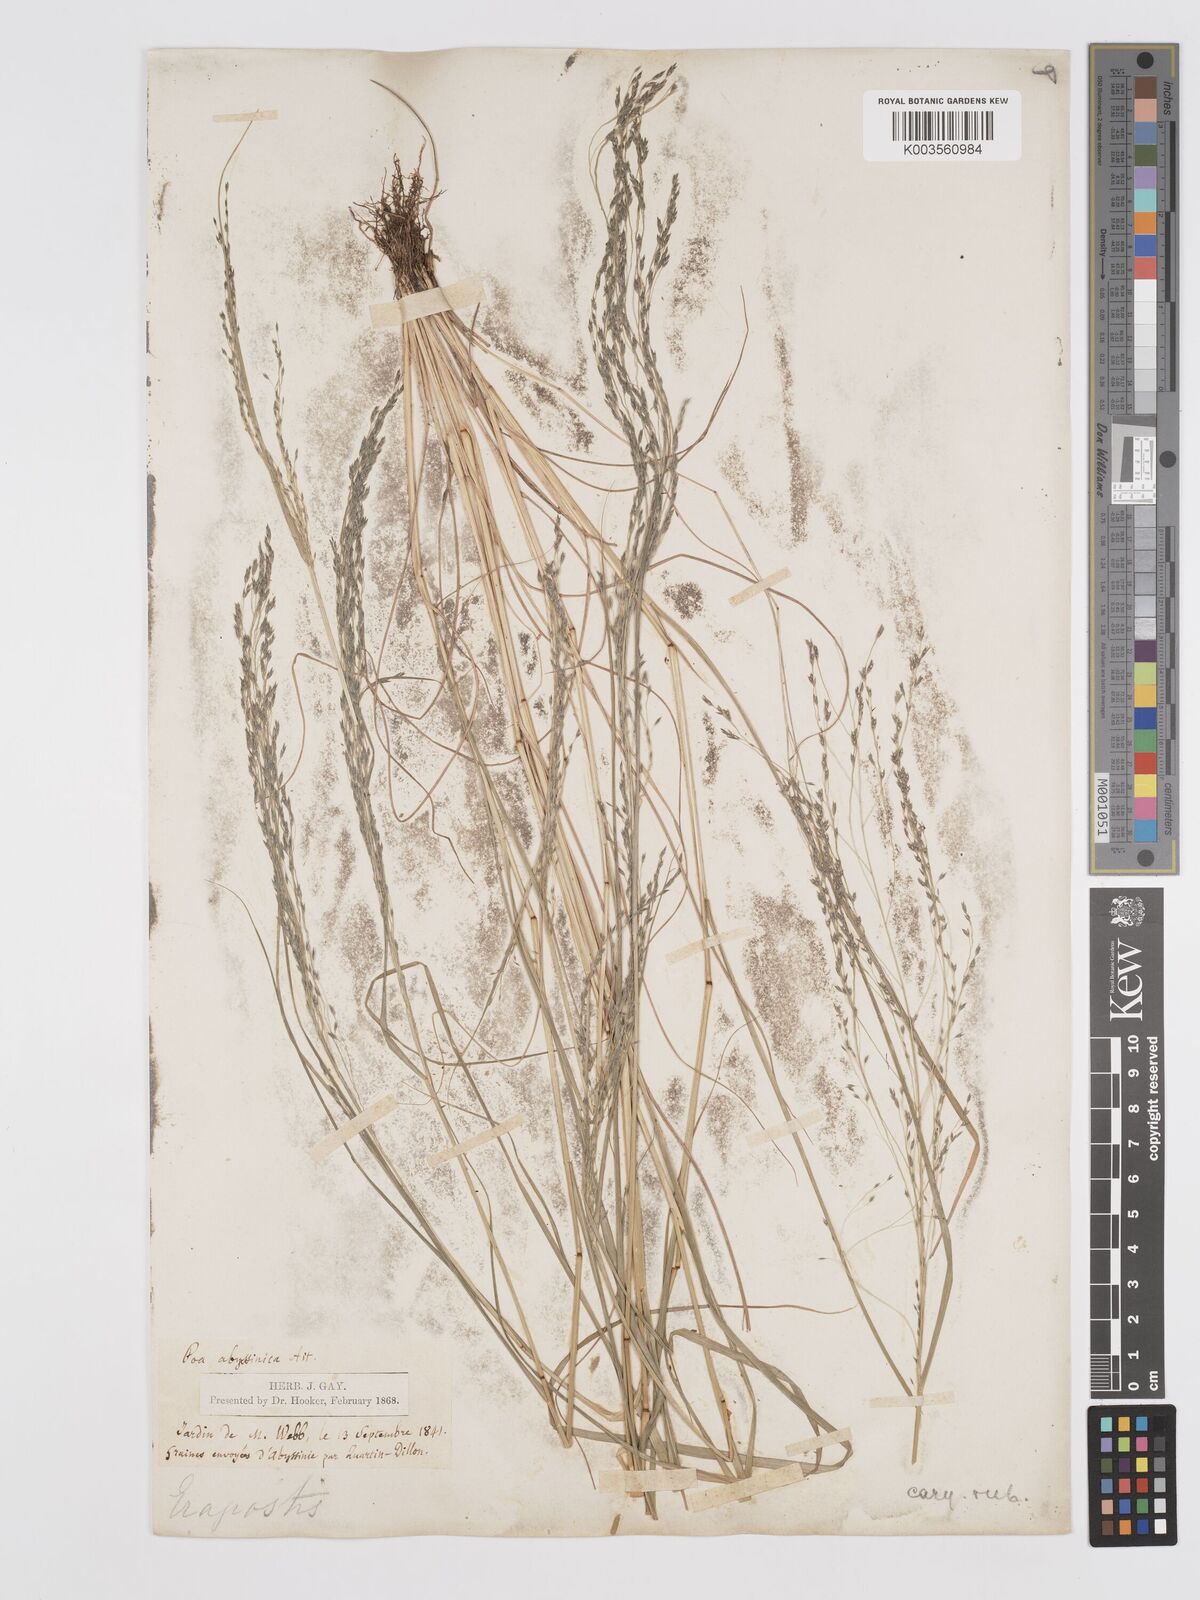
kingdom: Plantae
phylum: Tracheophyta
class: Liliopsida
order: Poales
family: Poaceae
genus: Eragrostis
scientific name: Eragrostis tef
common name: Teff
